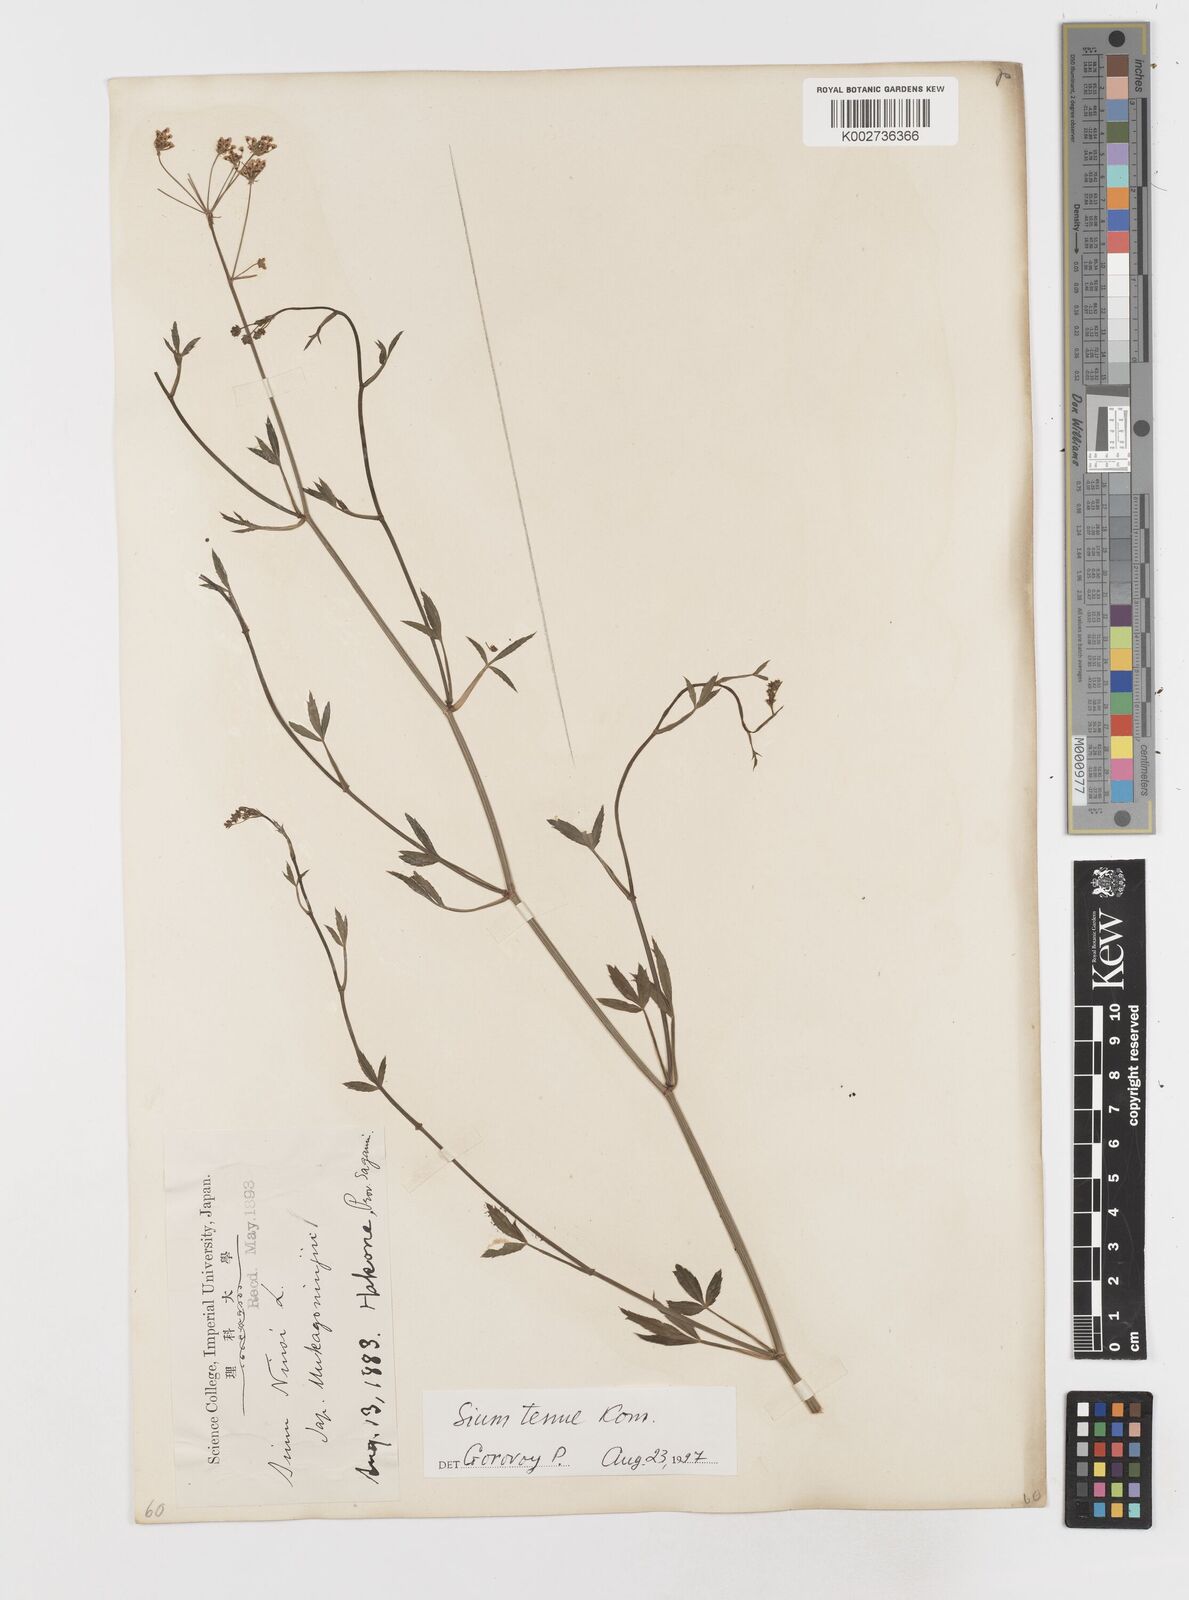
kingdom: Plantae
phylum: Tracheophyta
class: Magnoliopsida
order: Apiales
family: Apiaceae
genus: Sium
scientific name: Sium ninsi
